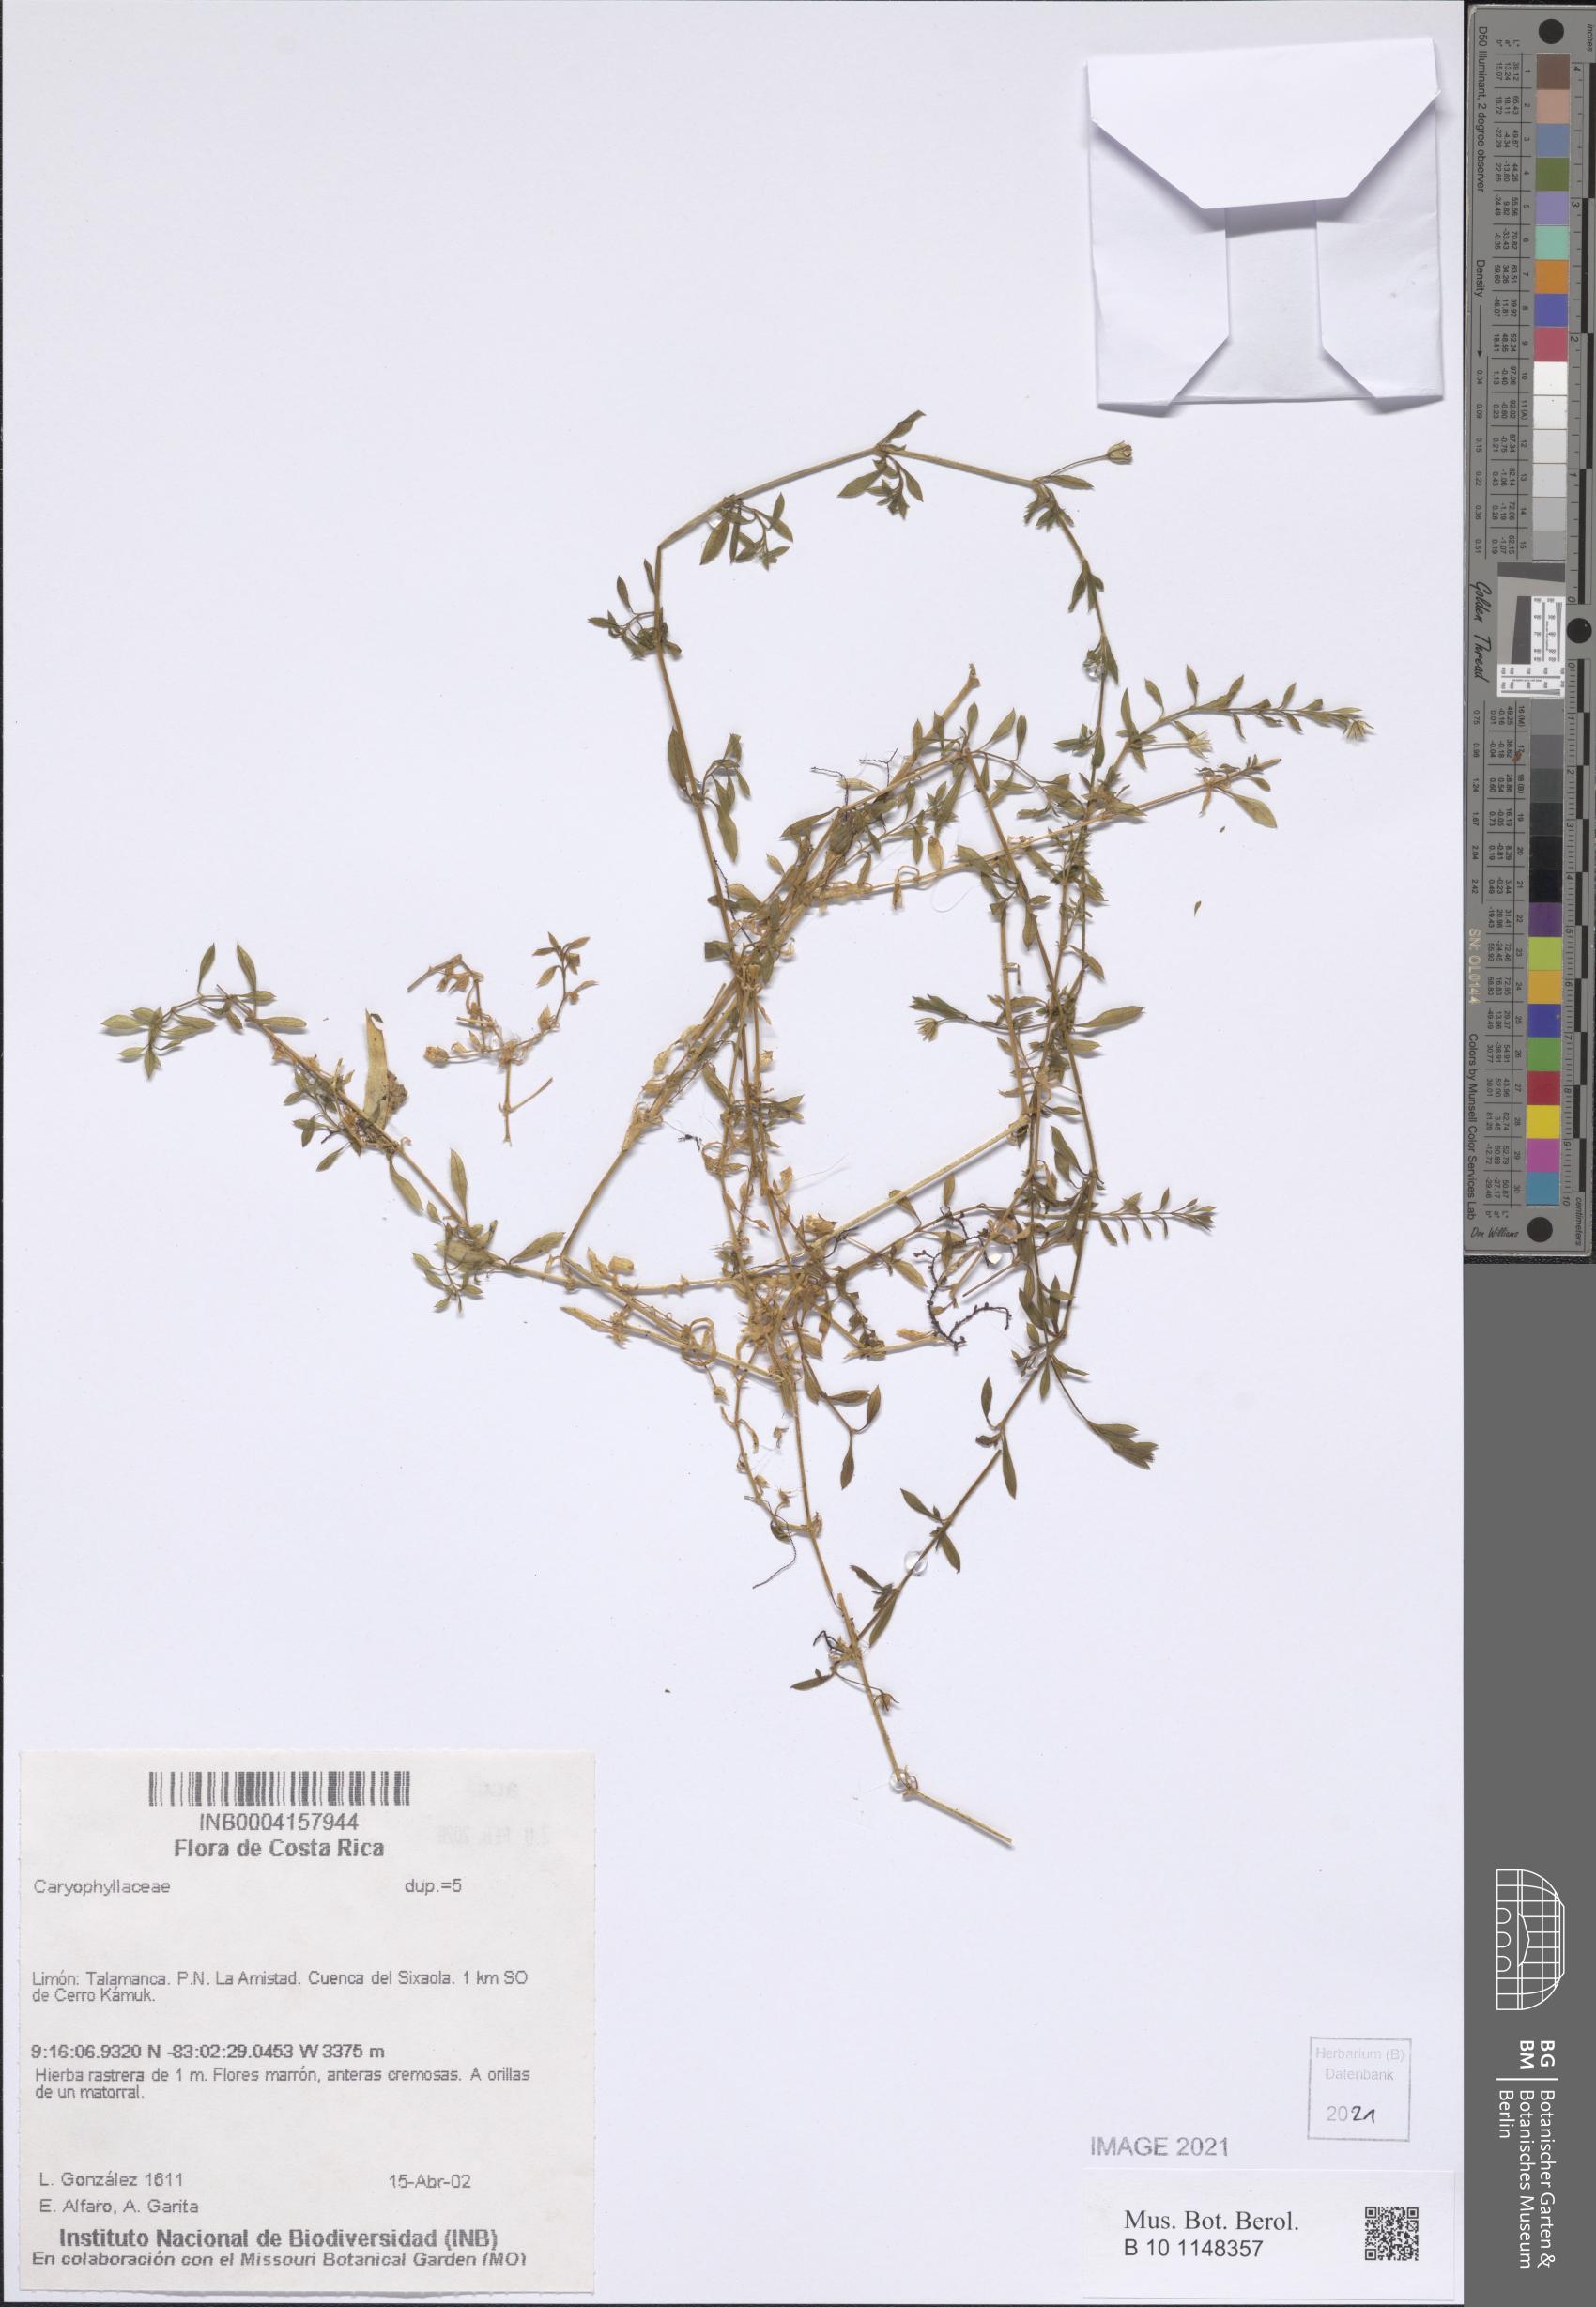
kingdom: Plantae
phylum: Tracheophyta
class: Magnoliopsida
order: Caryophyllales
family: Caryophyllaceae
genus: Arenaria
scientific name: Arenaria lanuginosa
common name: Spread sandwort
